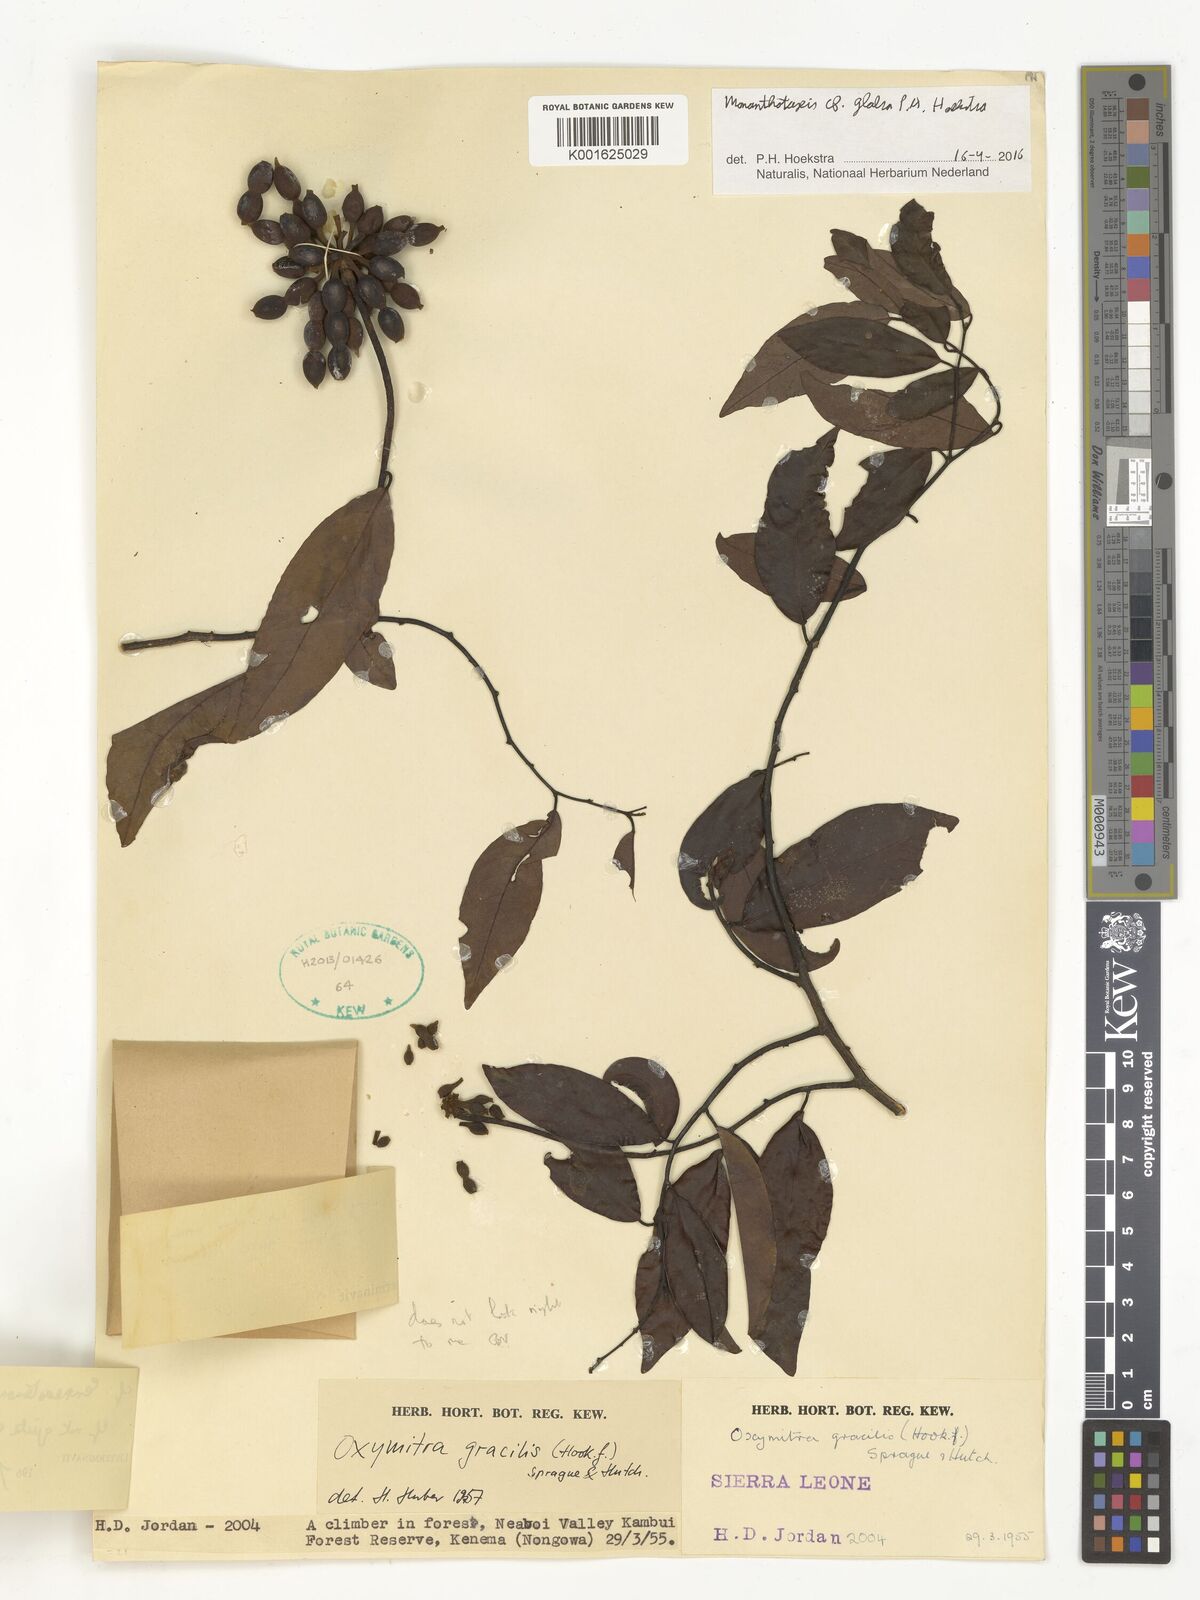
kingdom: Plantae
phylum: Tracheophyta
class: Magnoliopsida
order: Magnoliales
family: Annonaceae
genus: Monanthotaxis
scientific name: Monanthotaxis
